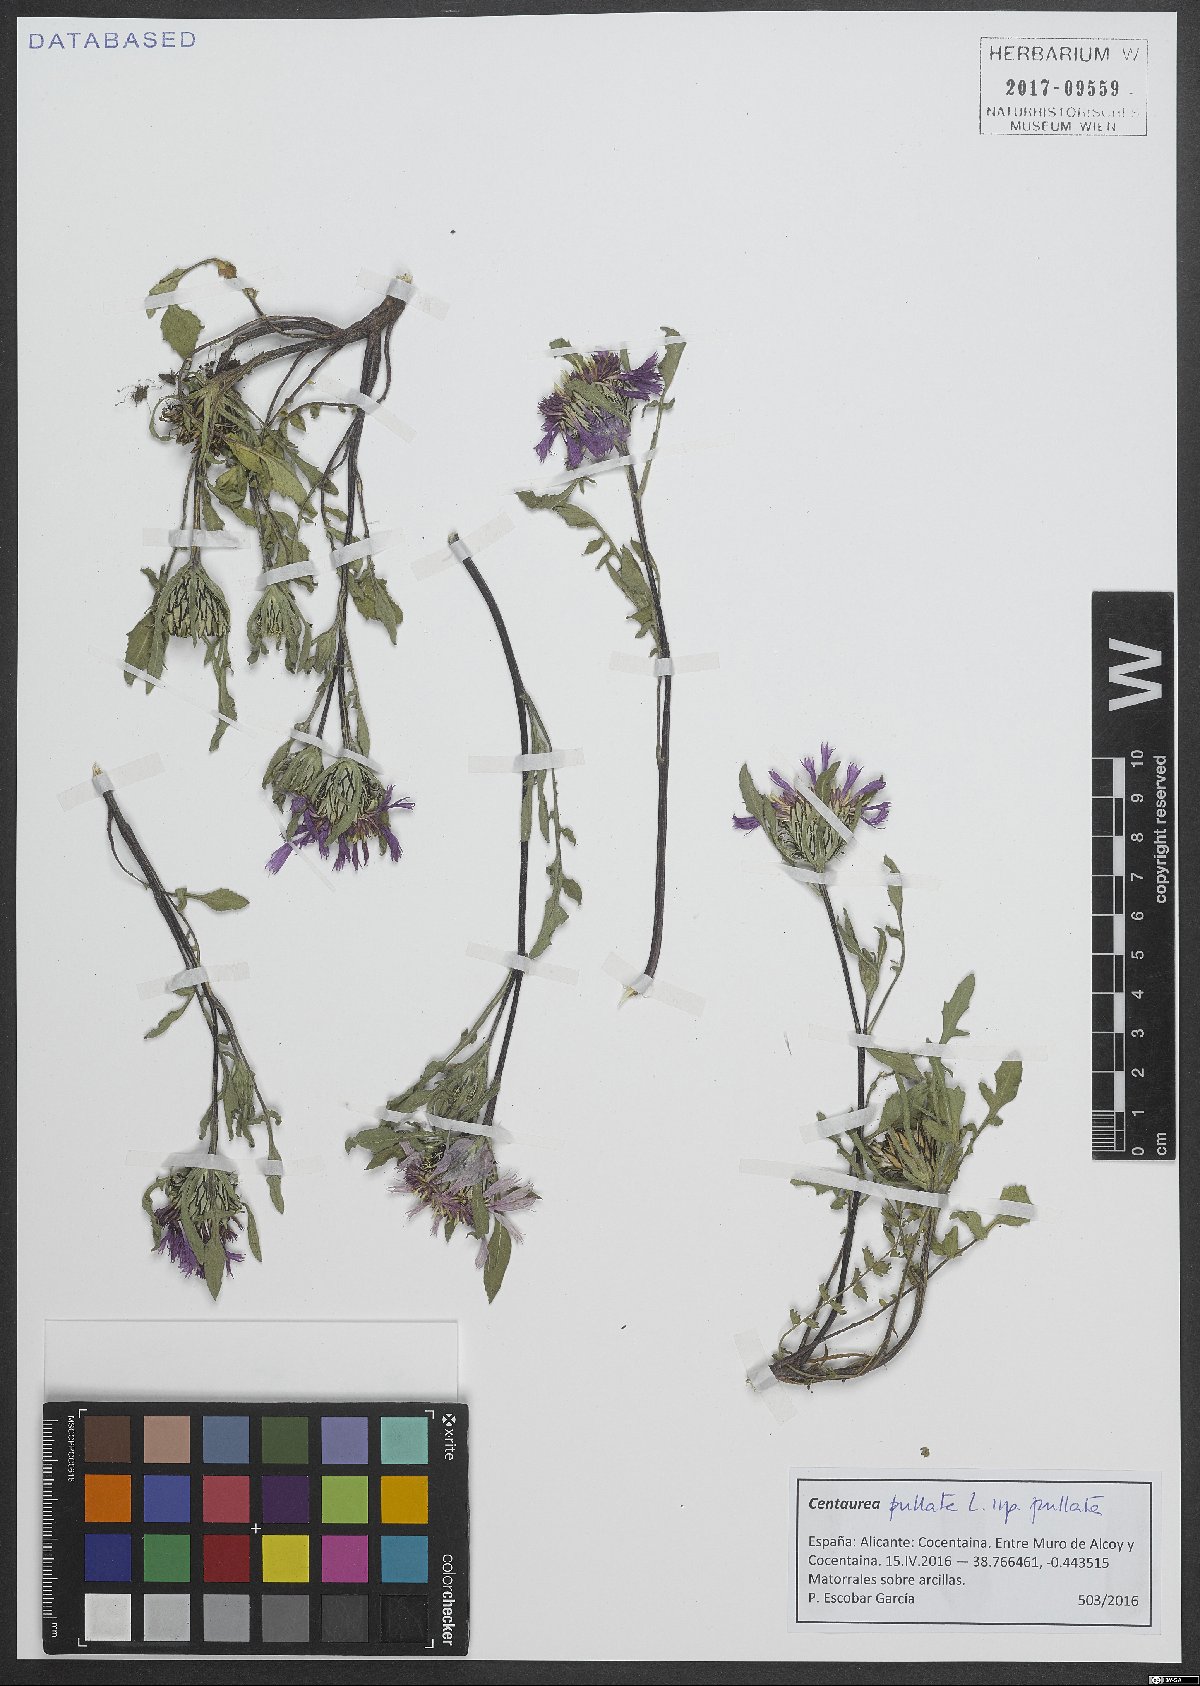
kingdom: Plantae
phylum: Tracheophyta
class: Magnoliopsida
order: Asterales
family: Asteraceae
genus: Centaurea
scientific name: Centaurea pullata
